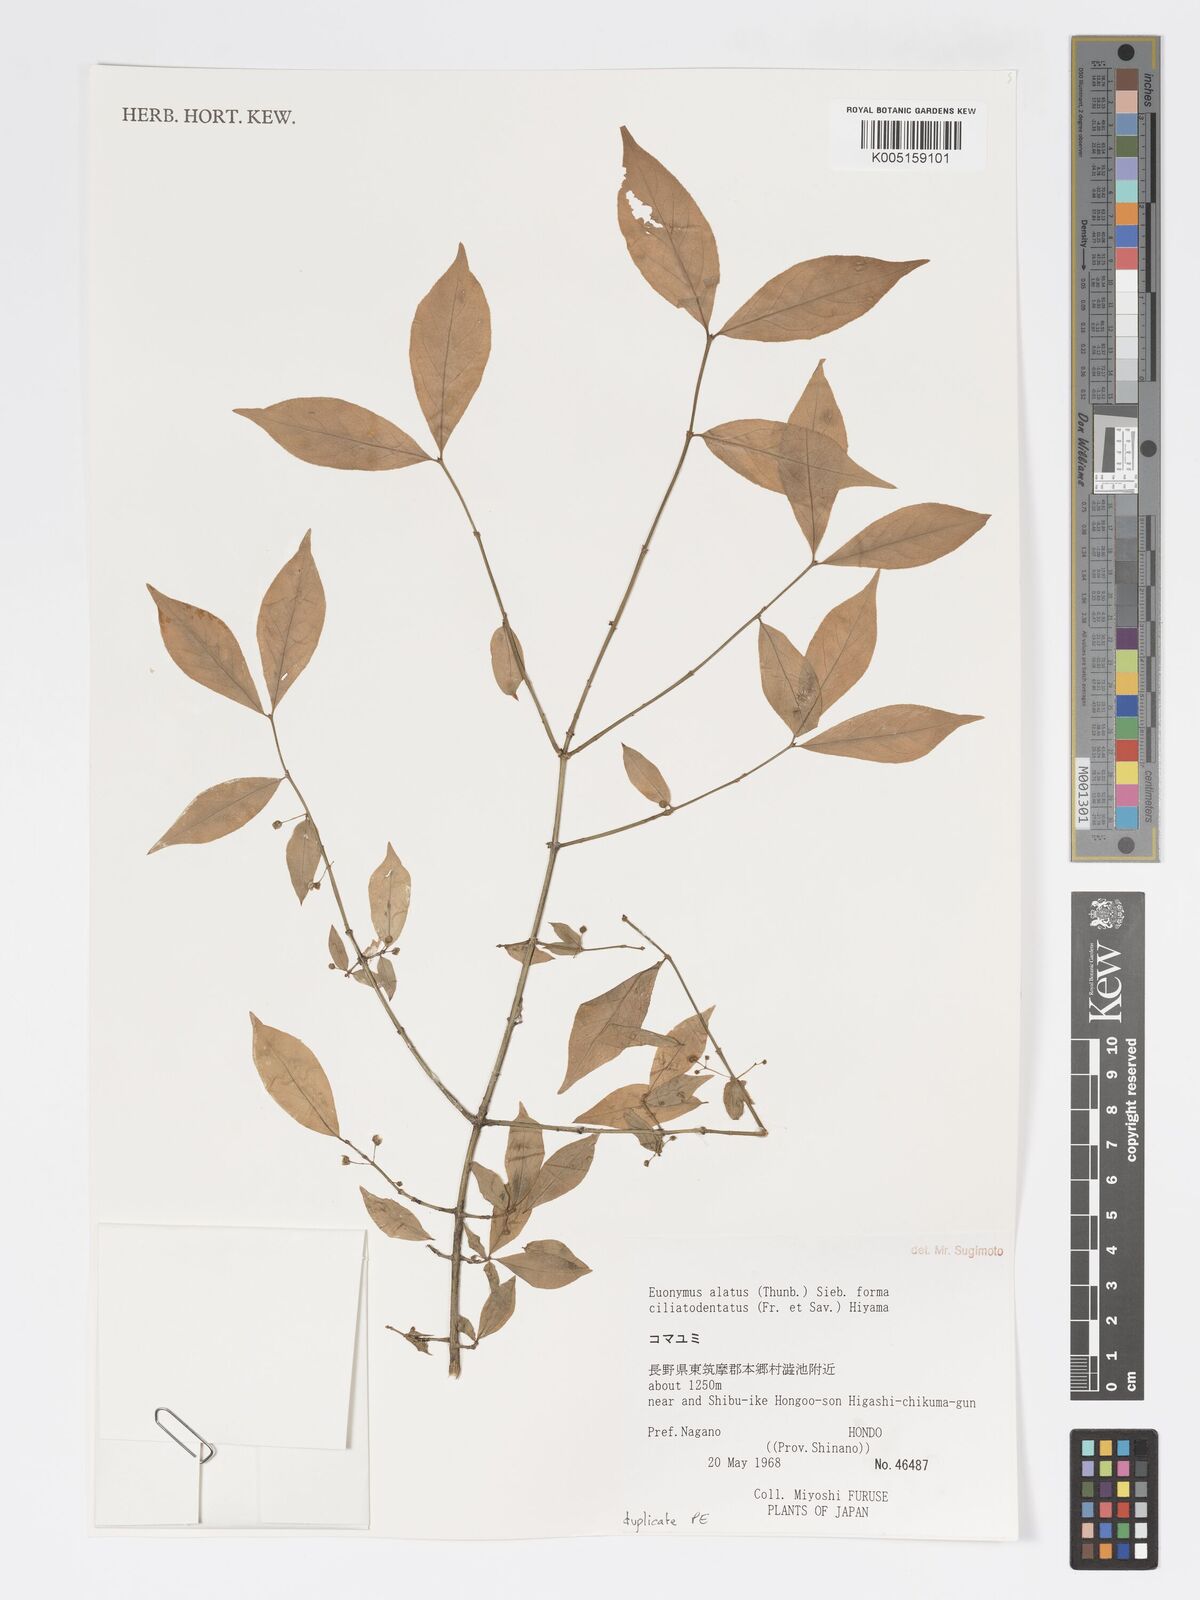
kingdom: Plantae
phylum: Tracheophyta
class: Magnoliopsida
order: Celastrales
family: Celastraceae
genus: Euonymus
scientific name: Euonymus
